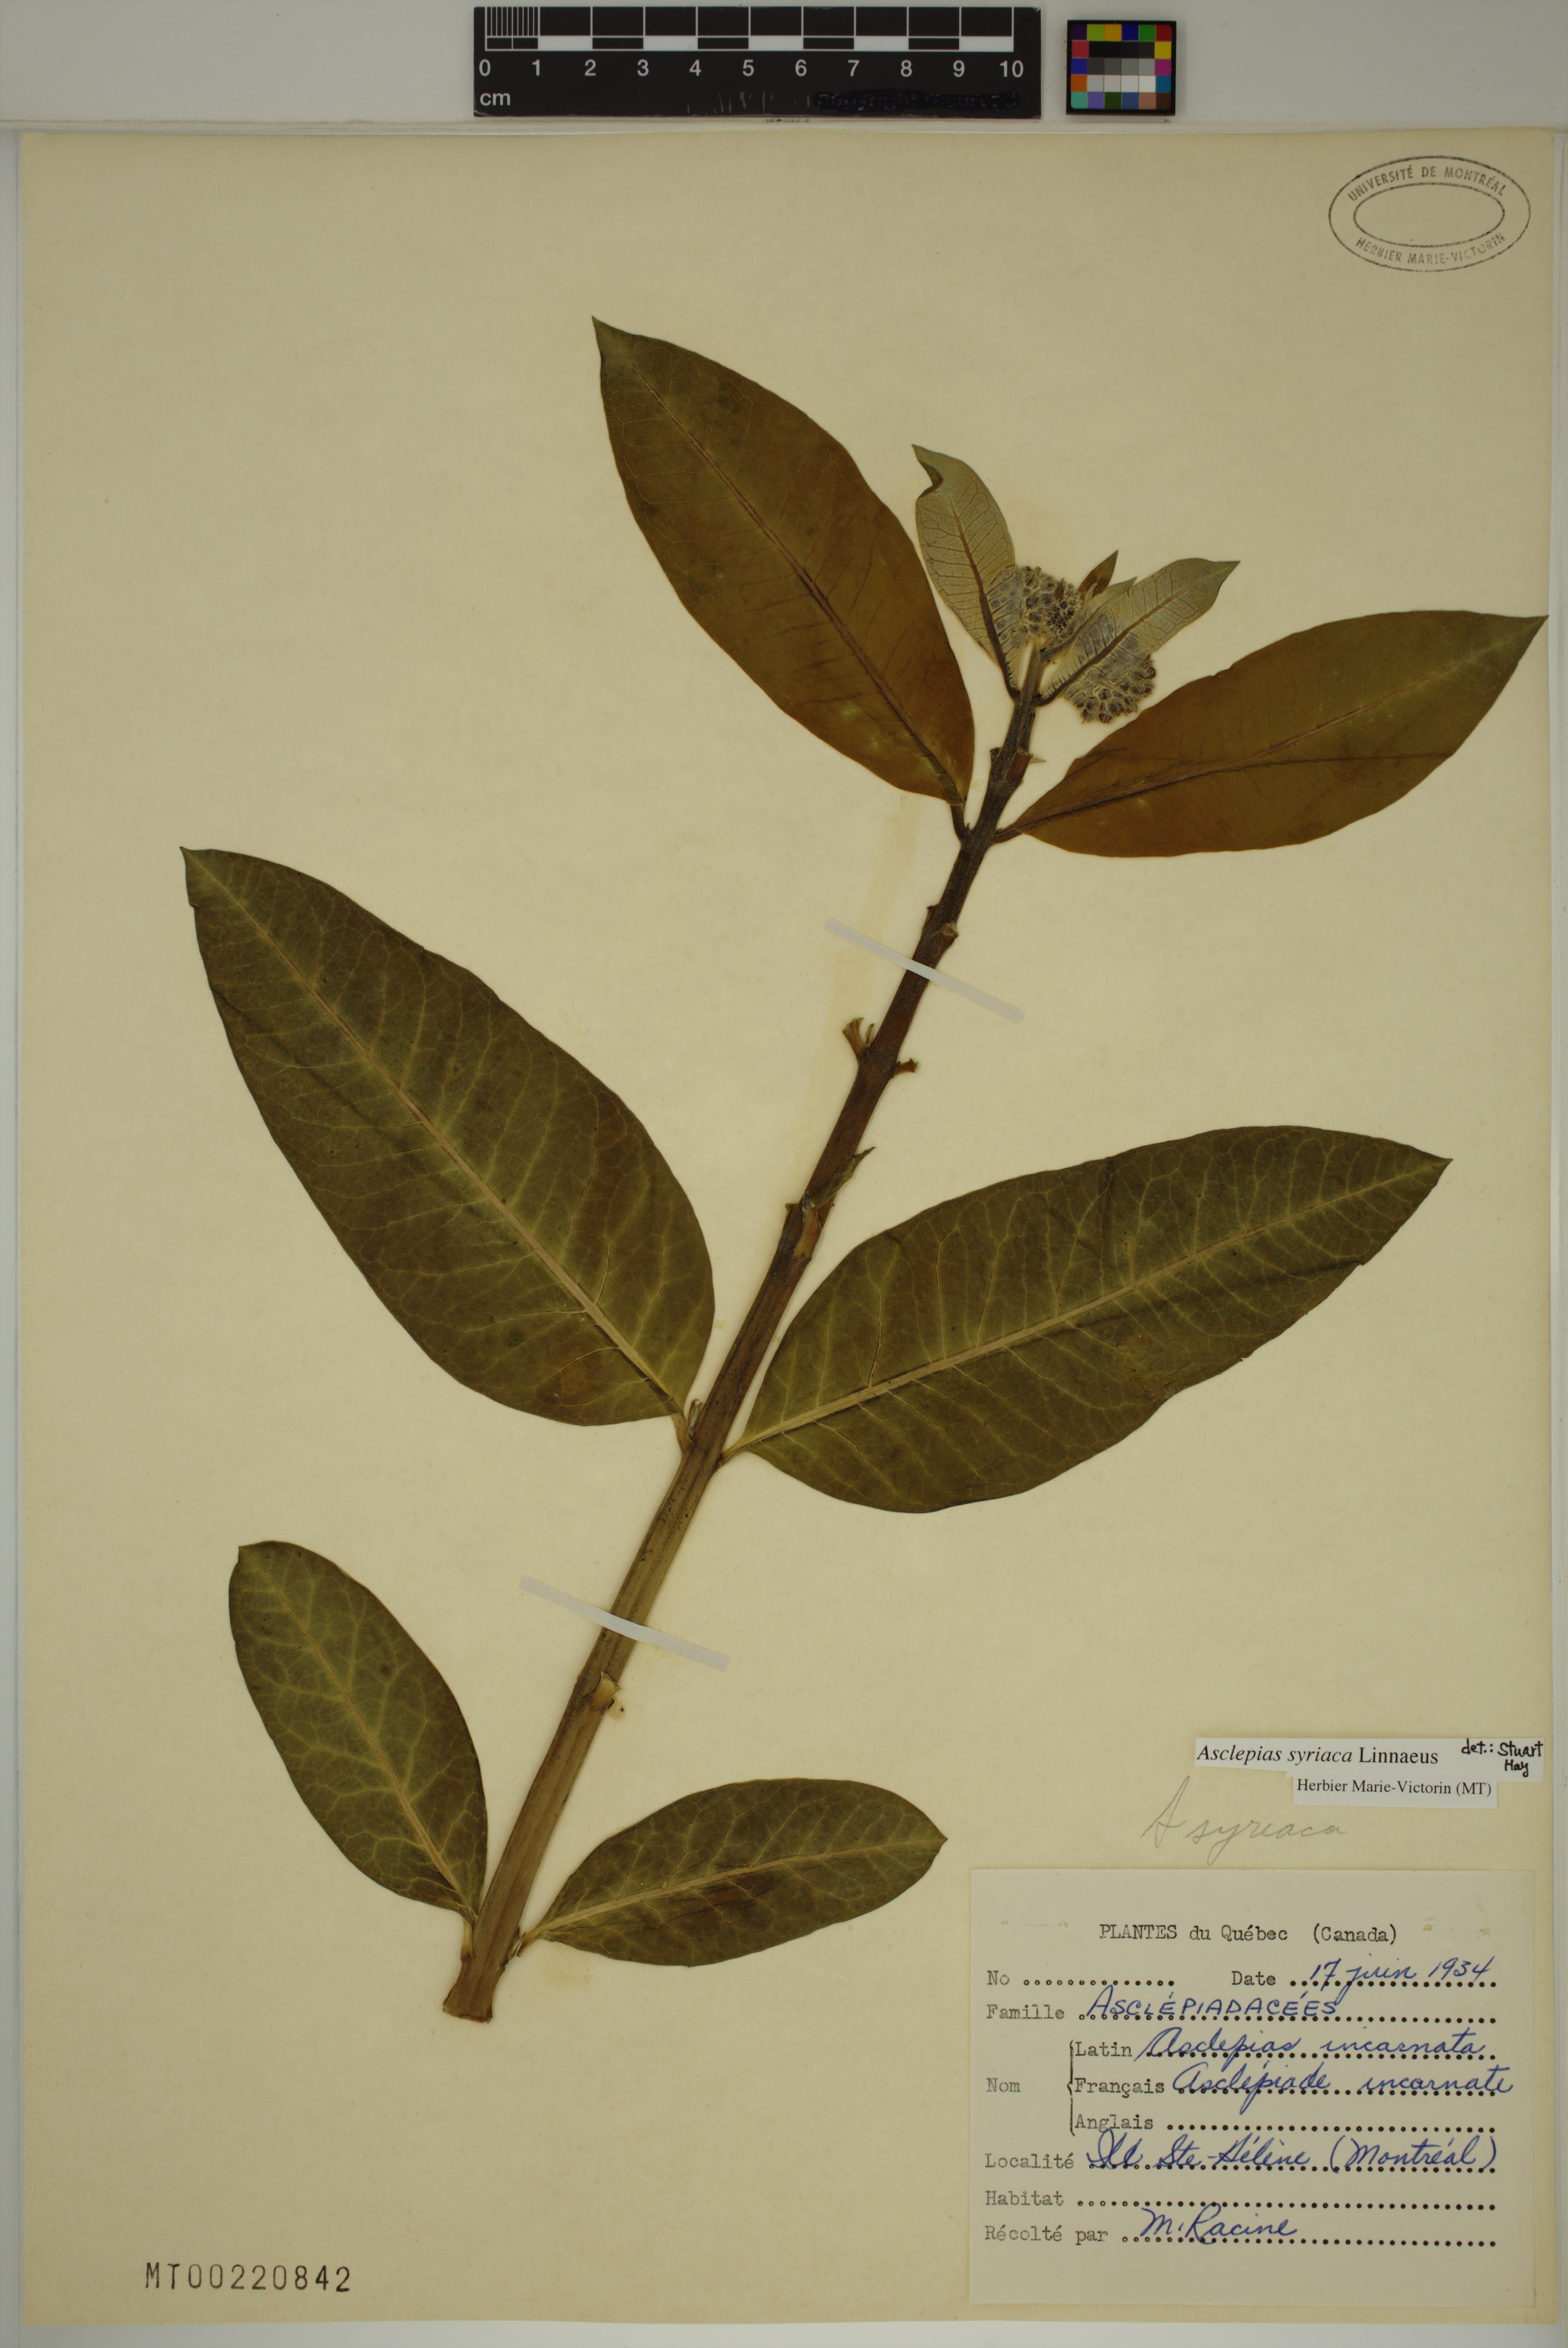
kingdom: Plantae
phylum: Tracheophyta
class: Magnoliopsida
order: Gentianales
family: Apocynaceae
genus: Asclepias
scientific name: Asclepias syriaca
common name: Common milkweed
